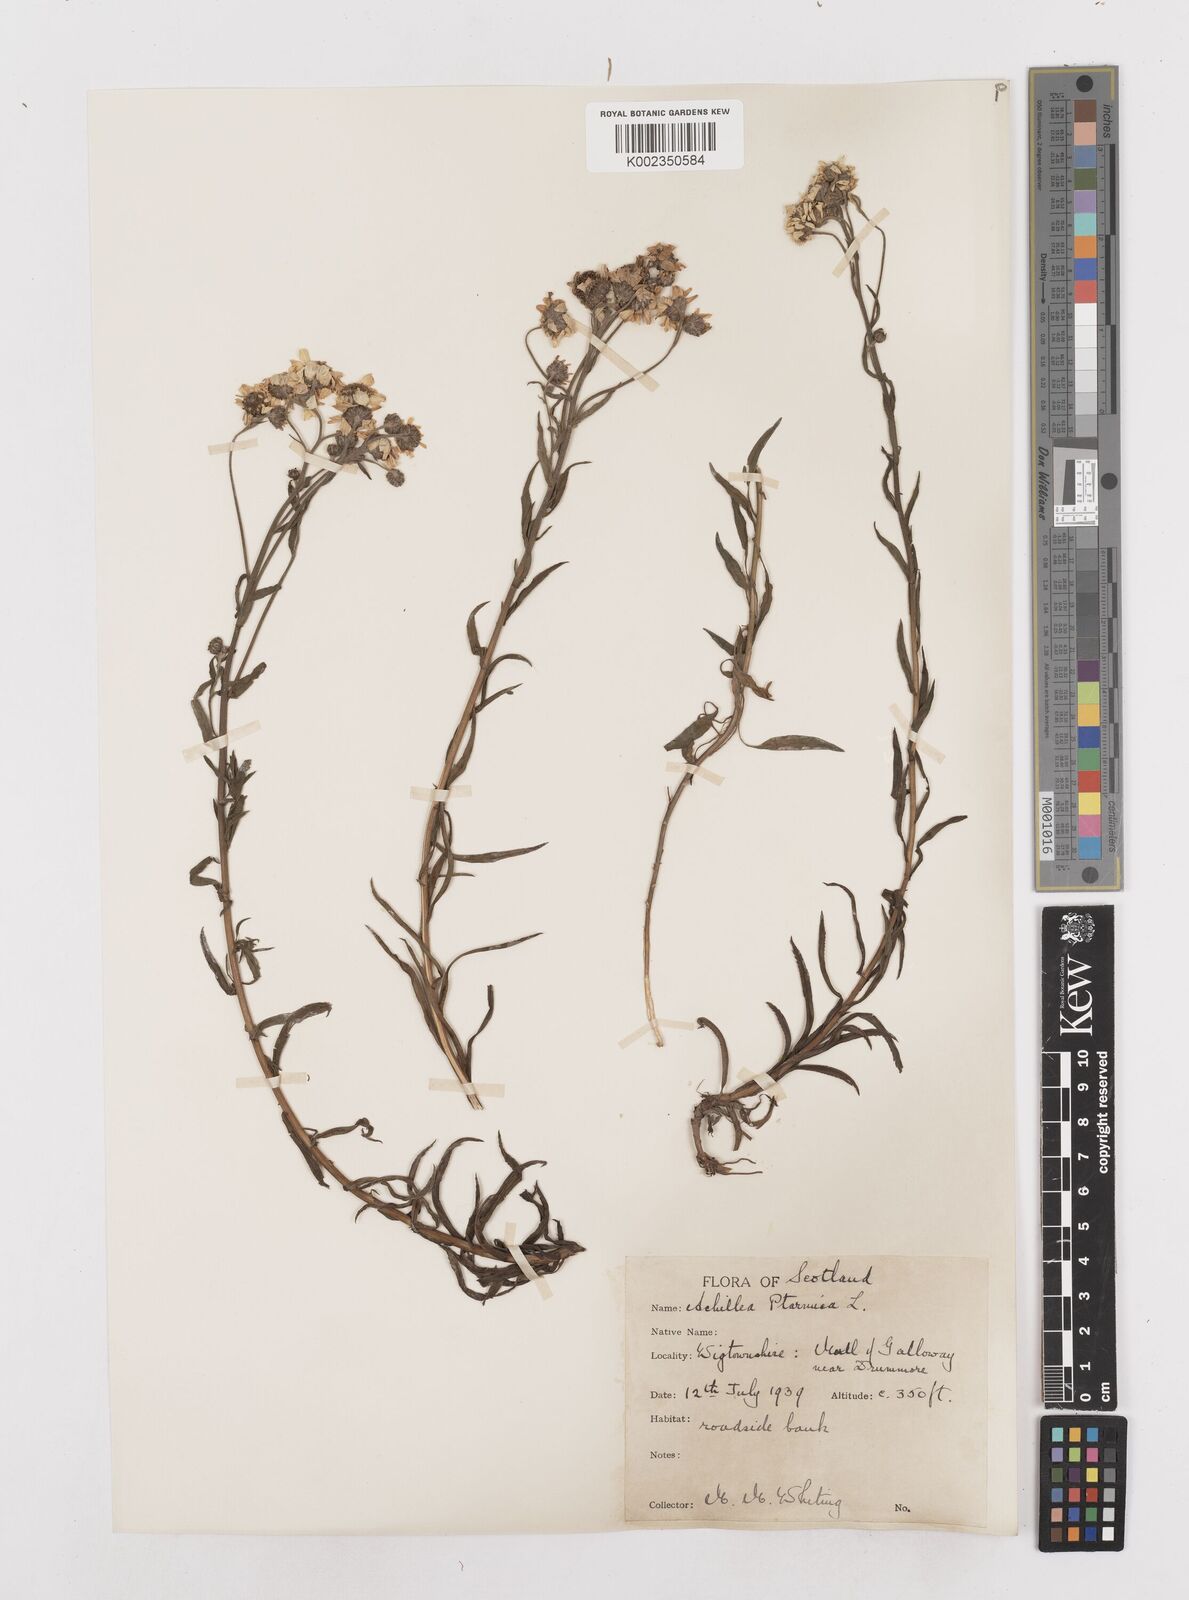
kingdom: Plantae
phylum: Tracheophyta
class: Magnoliopsida
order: Asterales
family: Asteraceae
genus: Achillea
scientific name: Achillea ptarmica
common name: Sneezeweed
